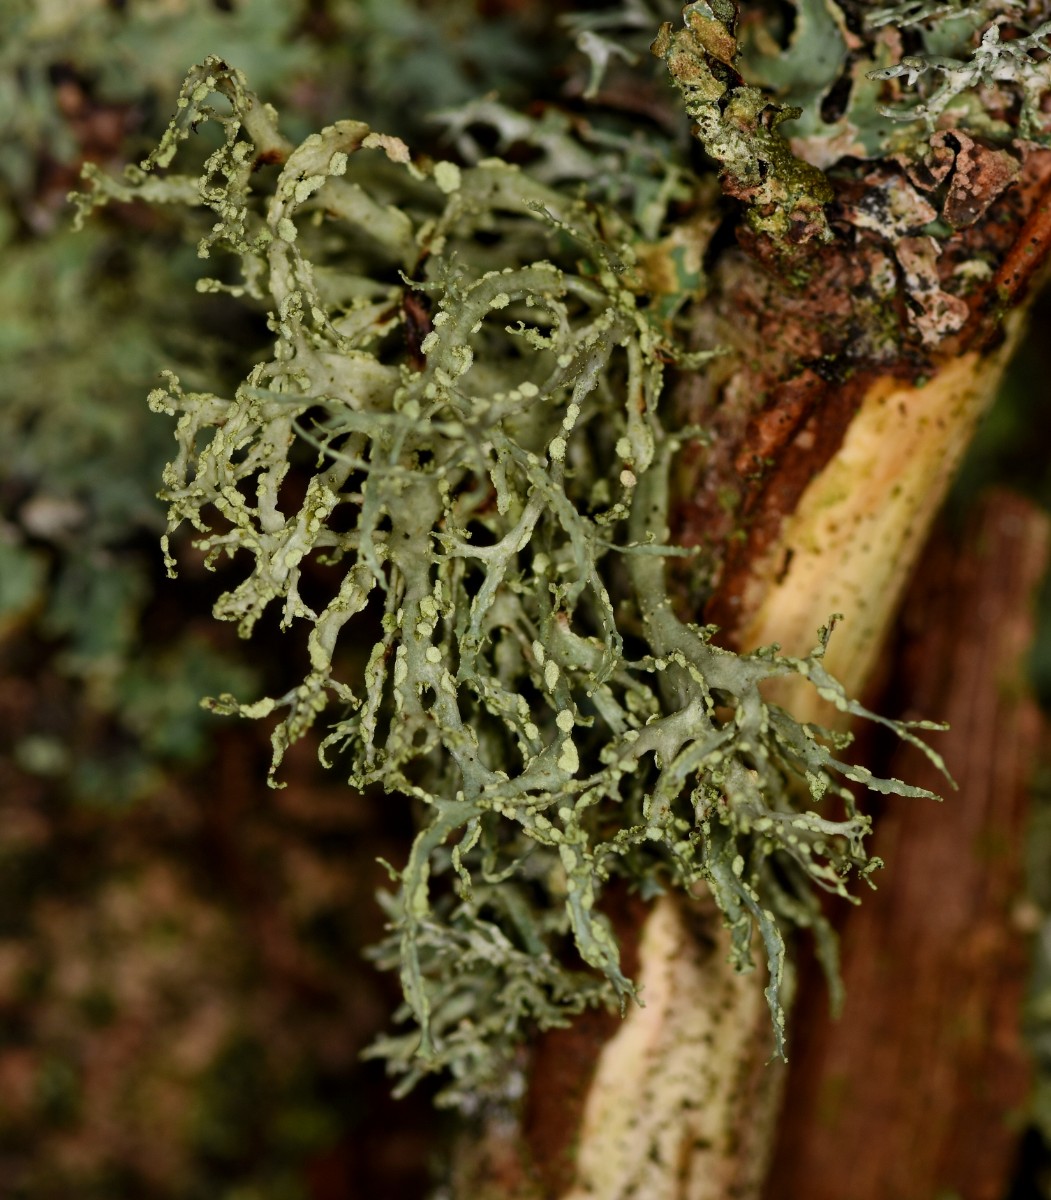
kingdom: Fungi
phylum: Ascomycota
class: Lecanoromycetes
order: Lecanorales
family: Ramalinaceae
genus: Ramalina
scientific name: Ramalina farinacea
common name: melet grenlav
